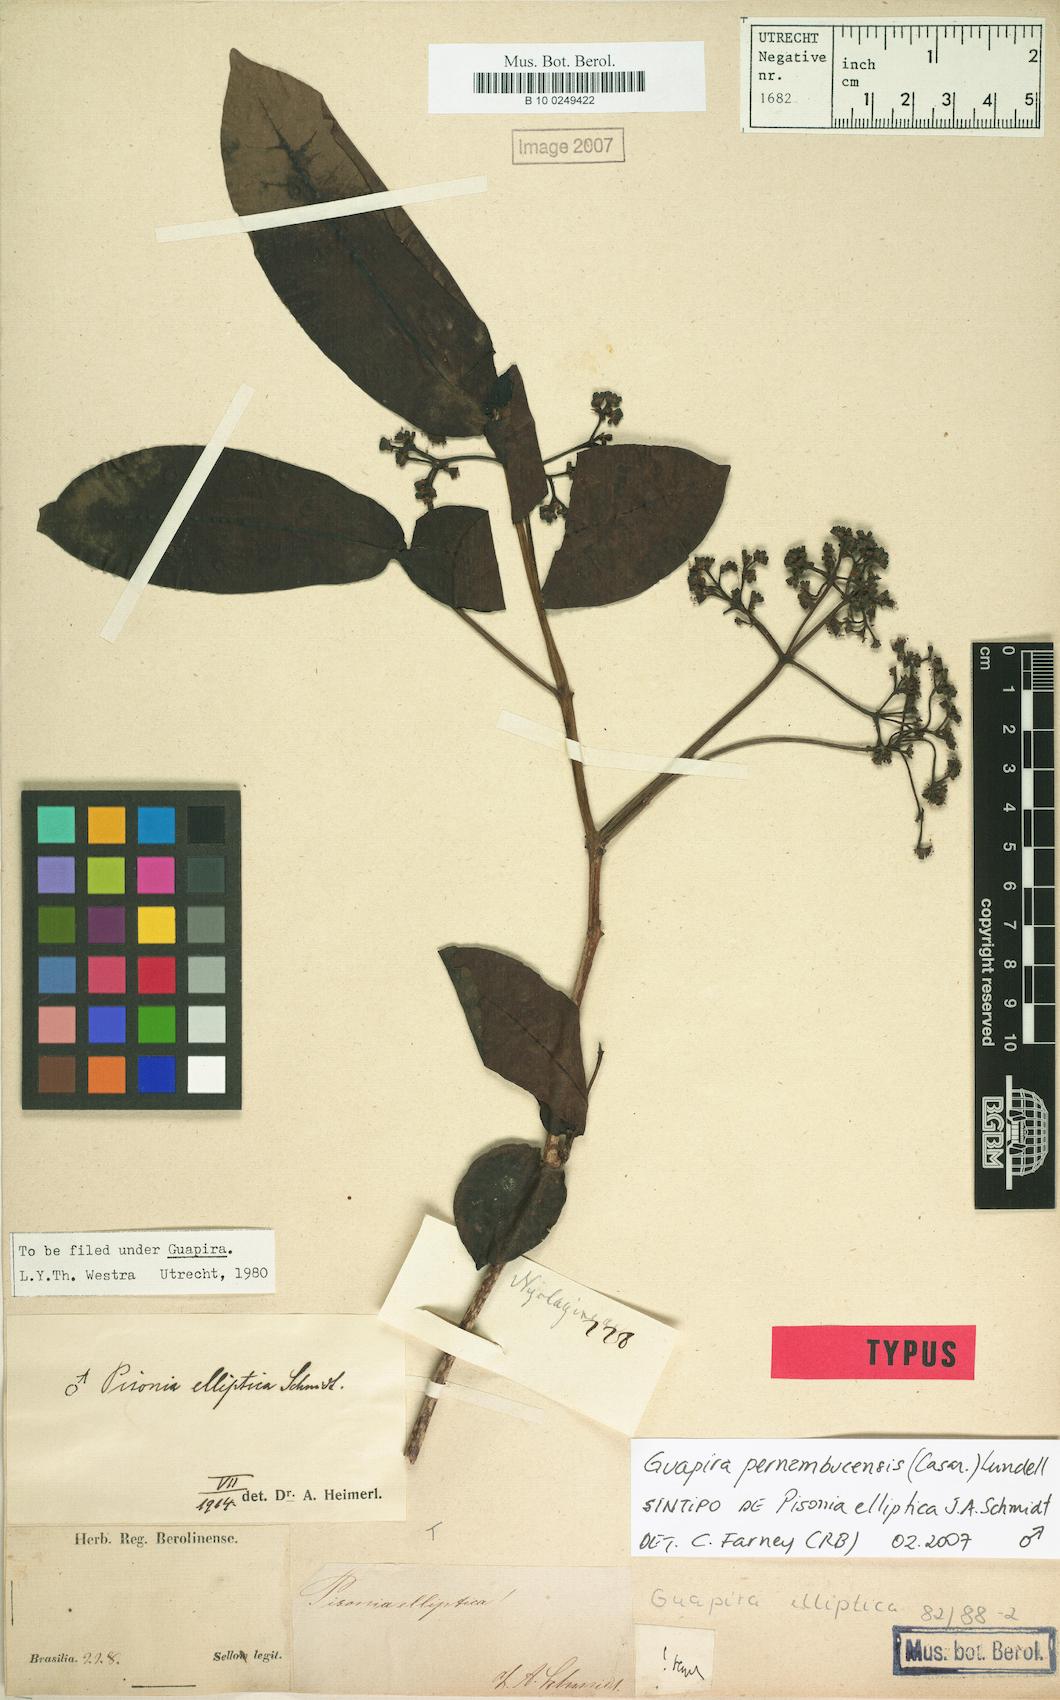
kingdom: Plantae
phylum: Tracheophyta
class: Magnoliopsida
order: Caryophyllales
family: Nyctaginaceae
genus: Guapira
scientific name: Guapira pernambucensis
